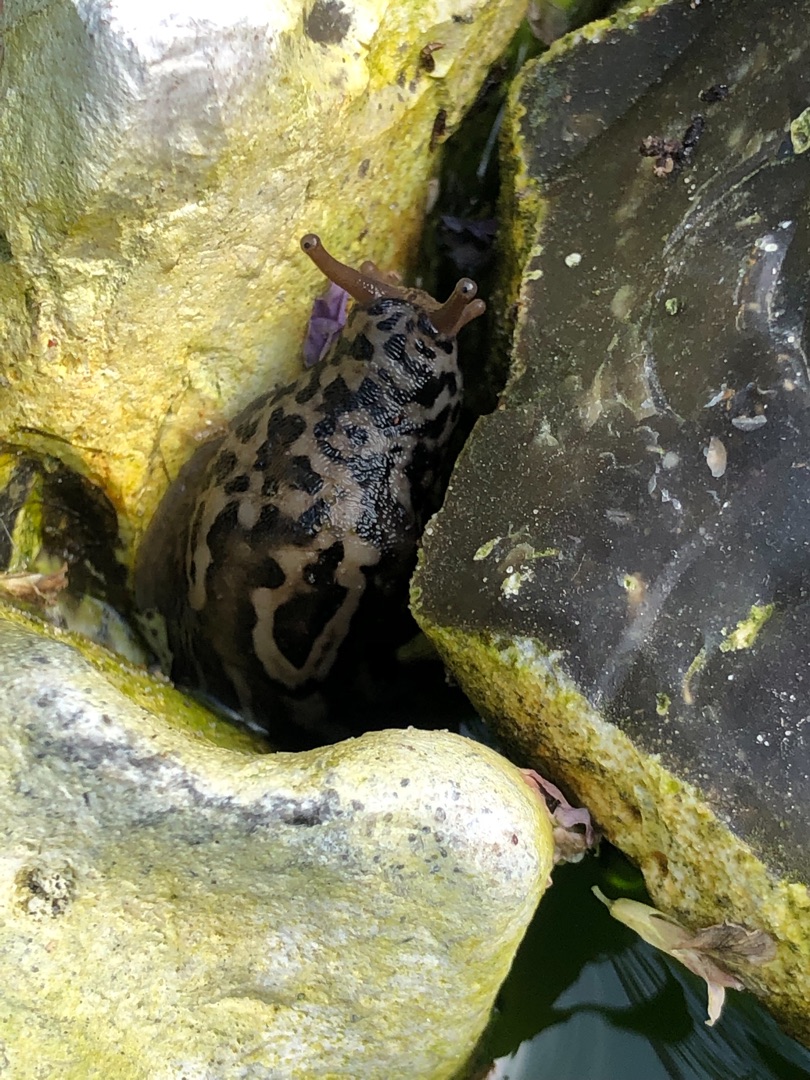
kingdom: Animalia
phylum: Mollusca
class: Gastropoda
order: Stylommatophora
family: Limacidae
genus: Limax
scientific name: Limax maximus
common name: Pantersnegl
